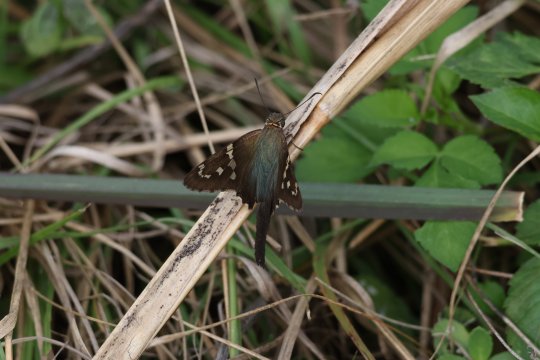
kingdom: Animalia
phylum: Arthropoda
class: Insecta
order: Lepidoptera
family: Hesperiidae
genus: Urbanus
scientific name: Urbanus proteus
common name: Long-tailed Skipper
